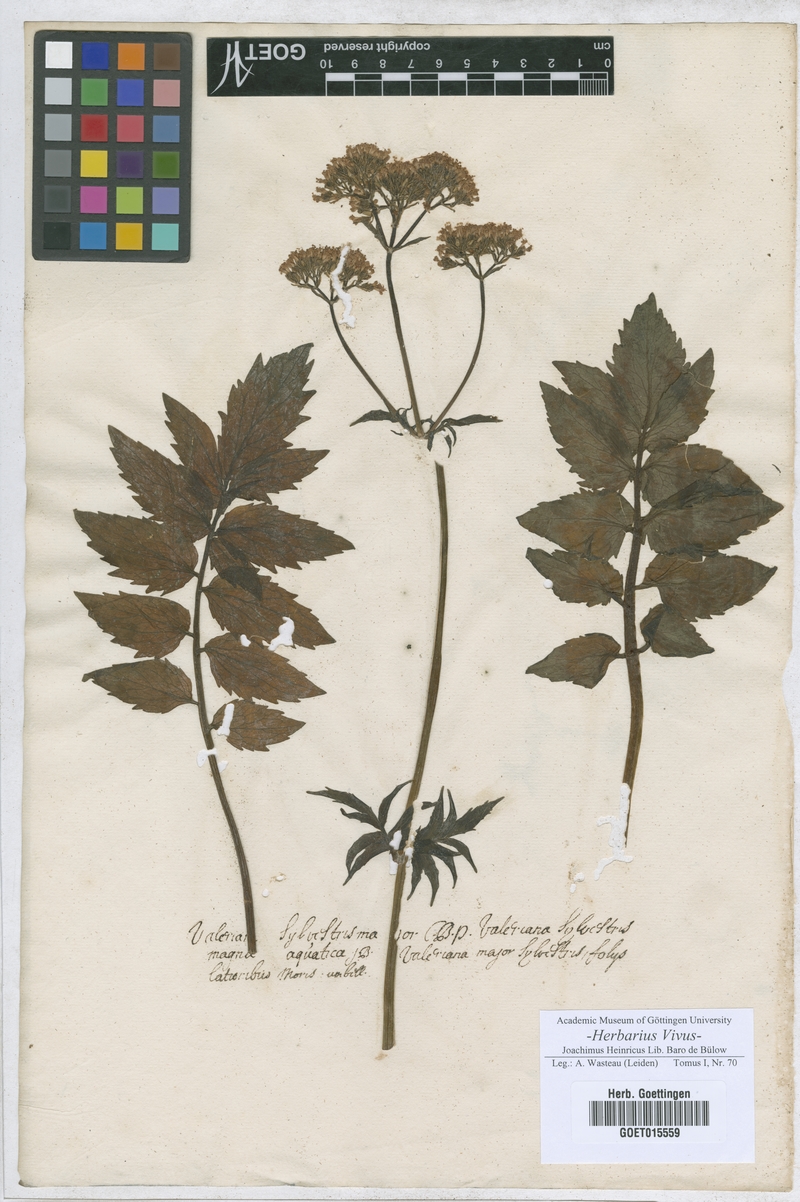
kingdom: Plantae
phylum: Tracheophyta
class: Magnoliopsida
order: Dipsacales
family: Caprifoliaceae
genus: Valeriana
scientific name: Valeriana officinalis
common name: Common valerian
